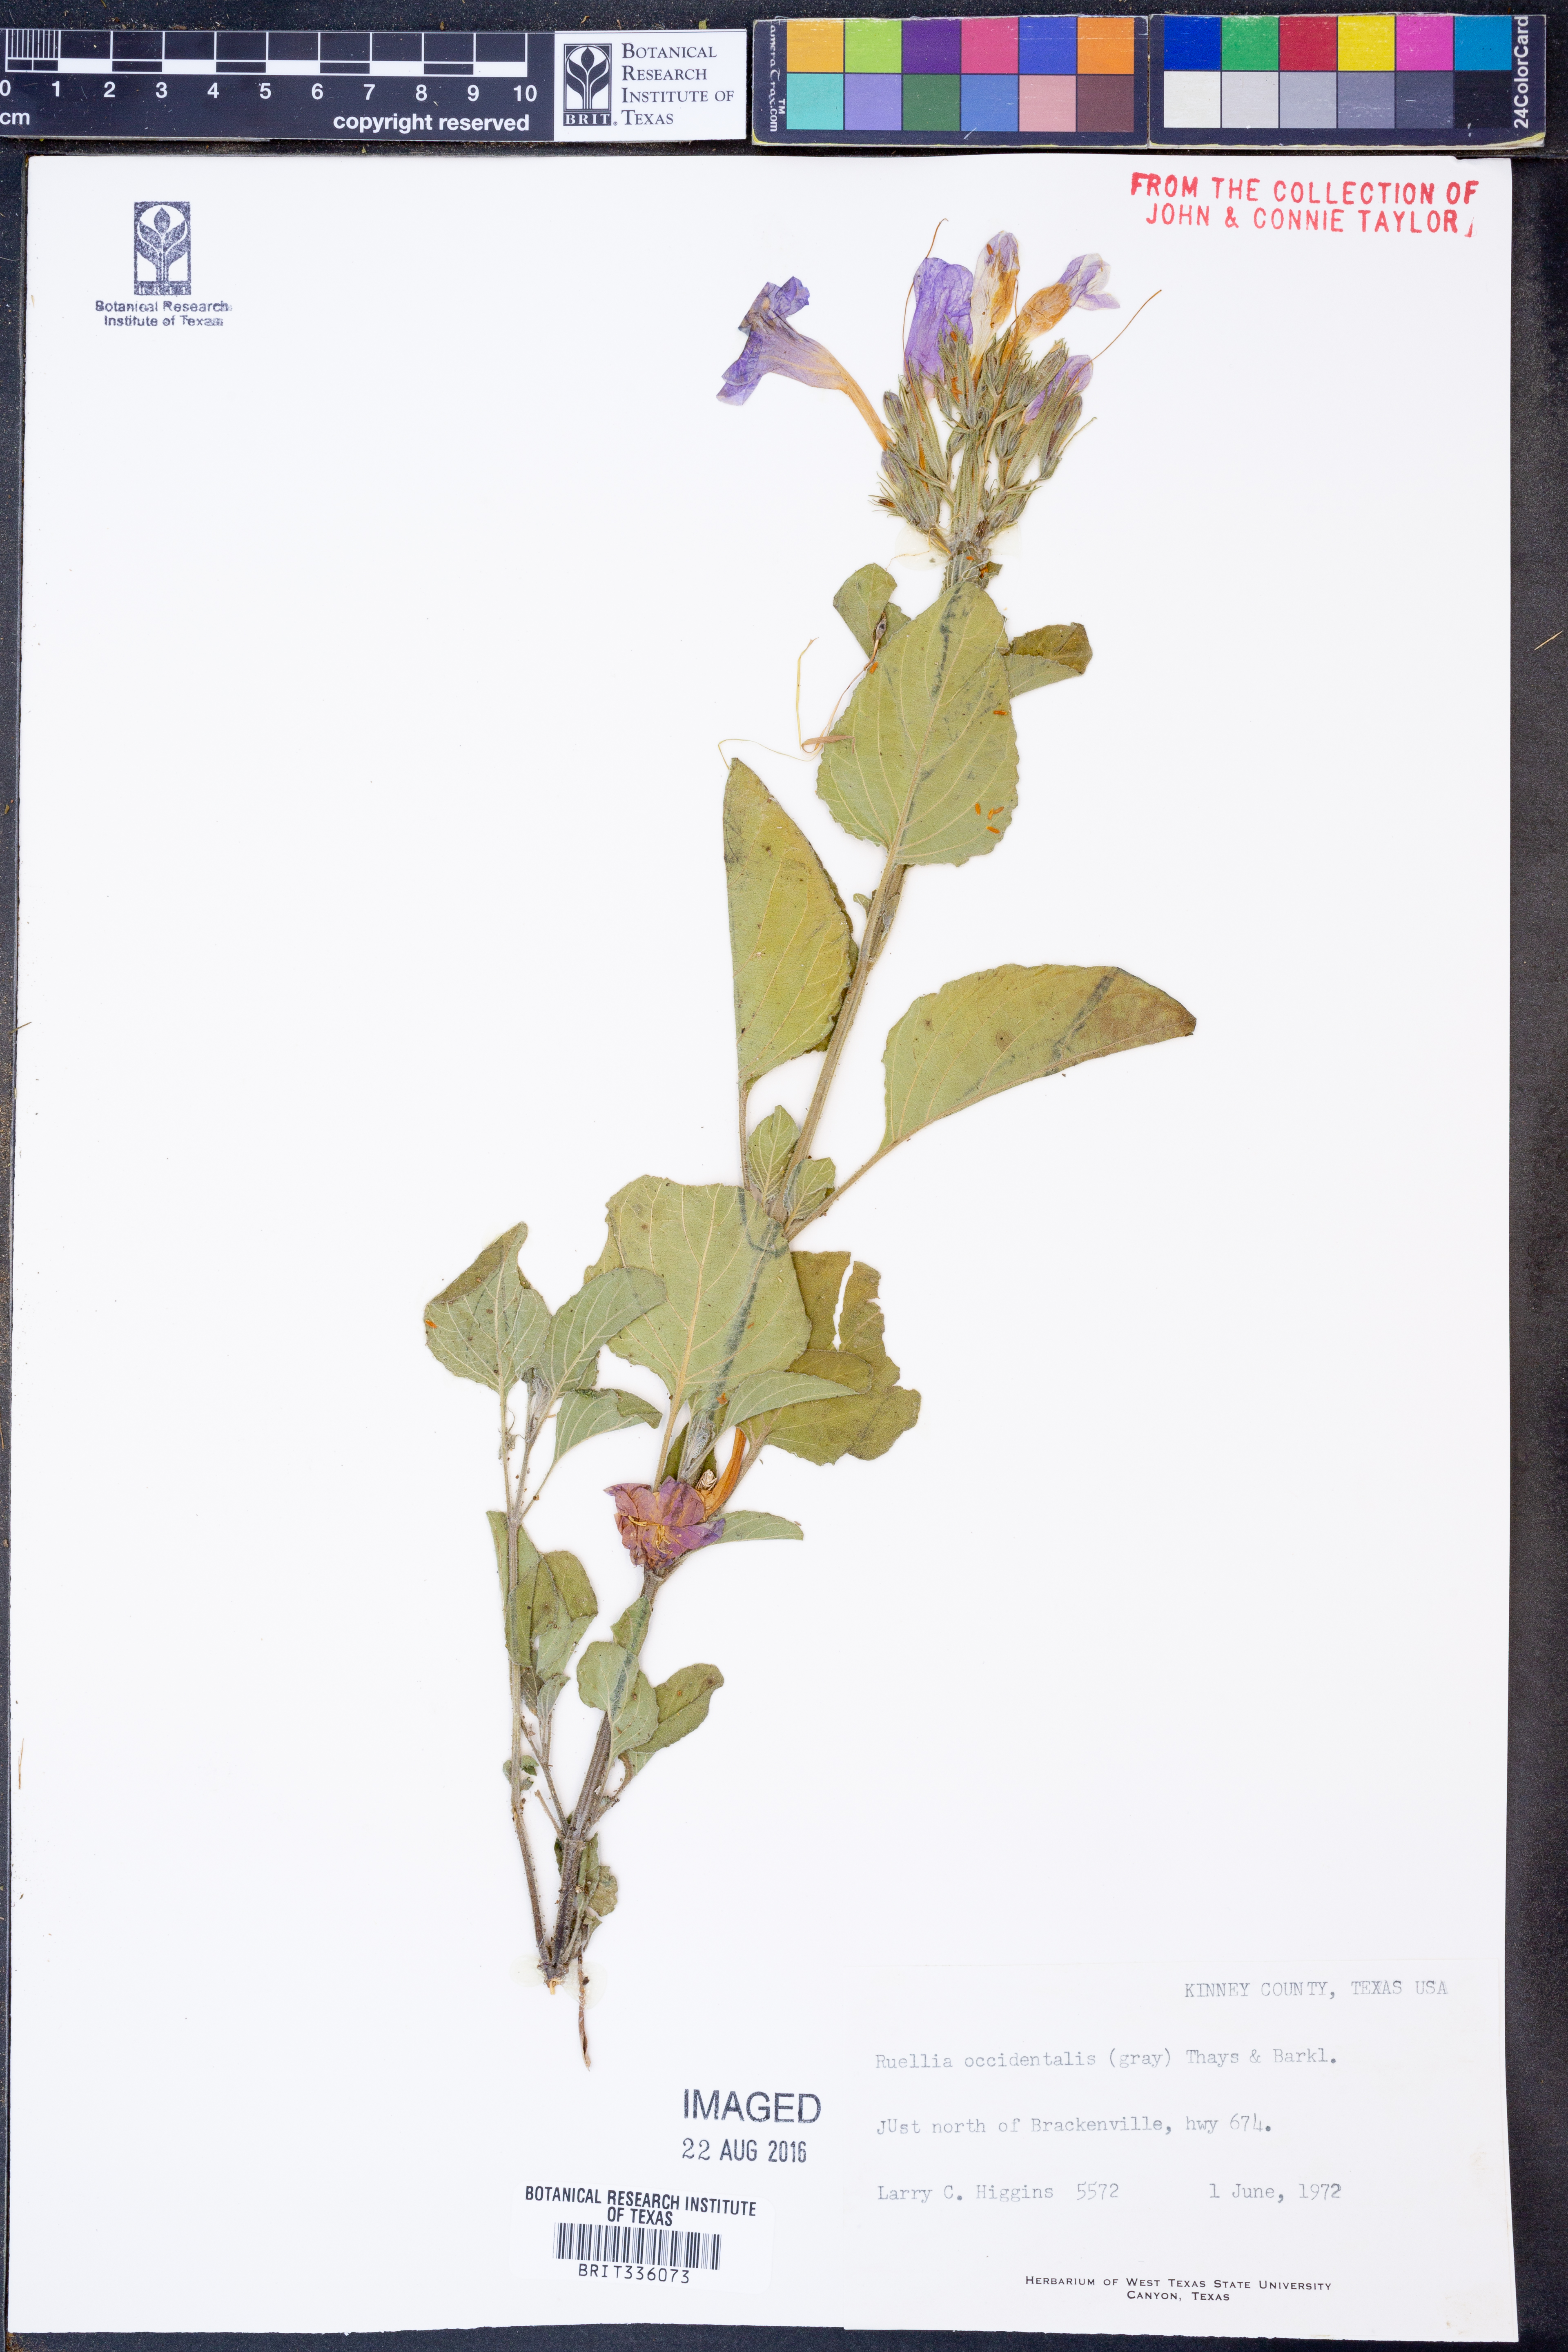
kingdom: Plantae
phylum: Tracheophyta
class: Magnoliopsida
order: Lamiales
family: Acanthaceae
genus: Ruellia
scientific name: Ruellia ciliatiflora
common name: Hairyflower wild petunia
